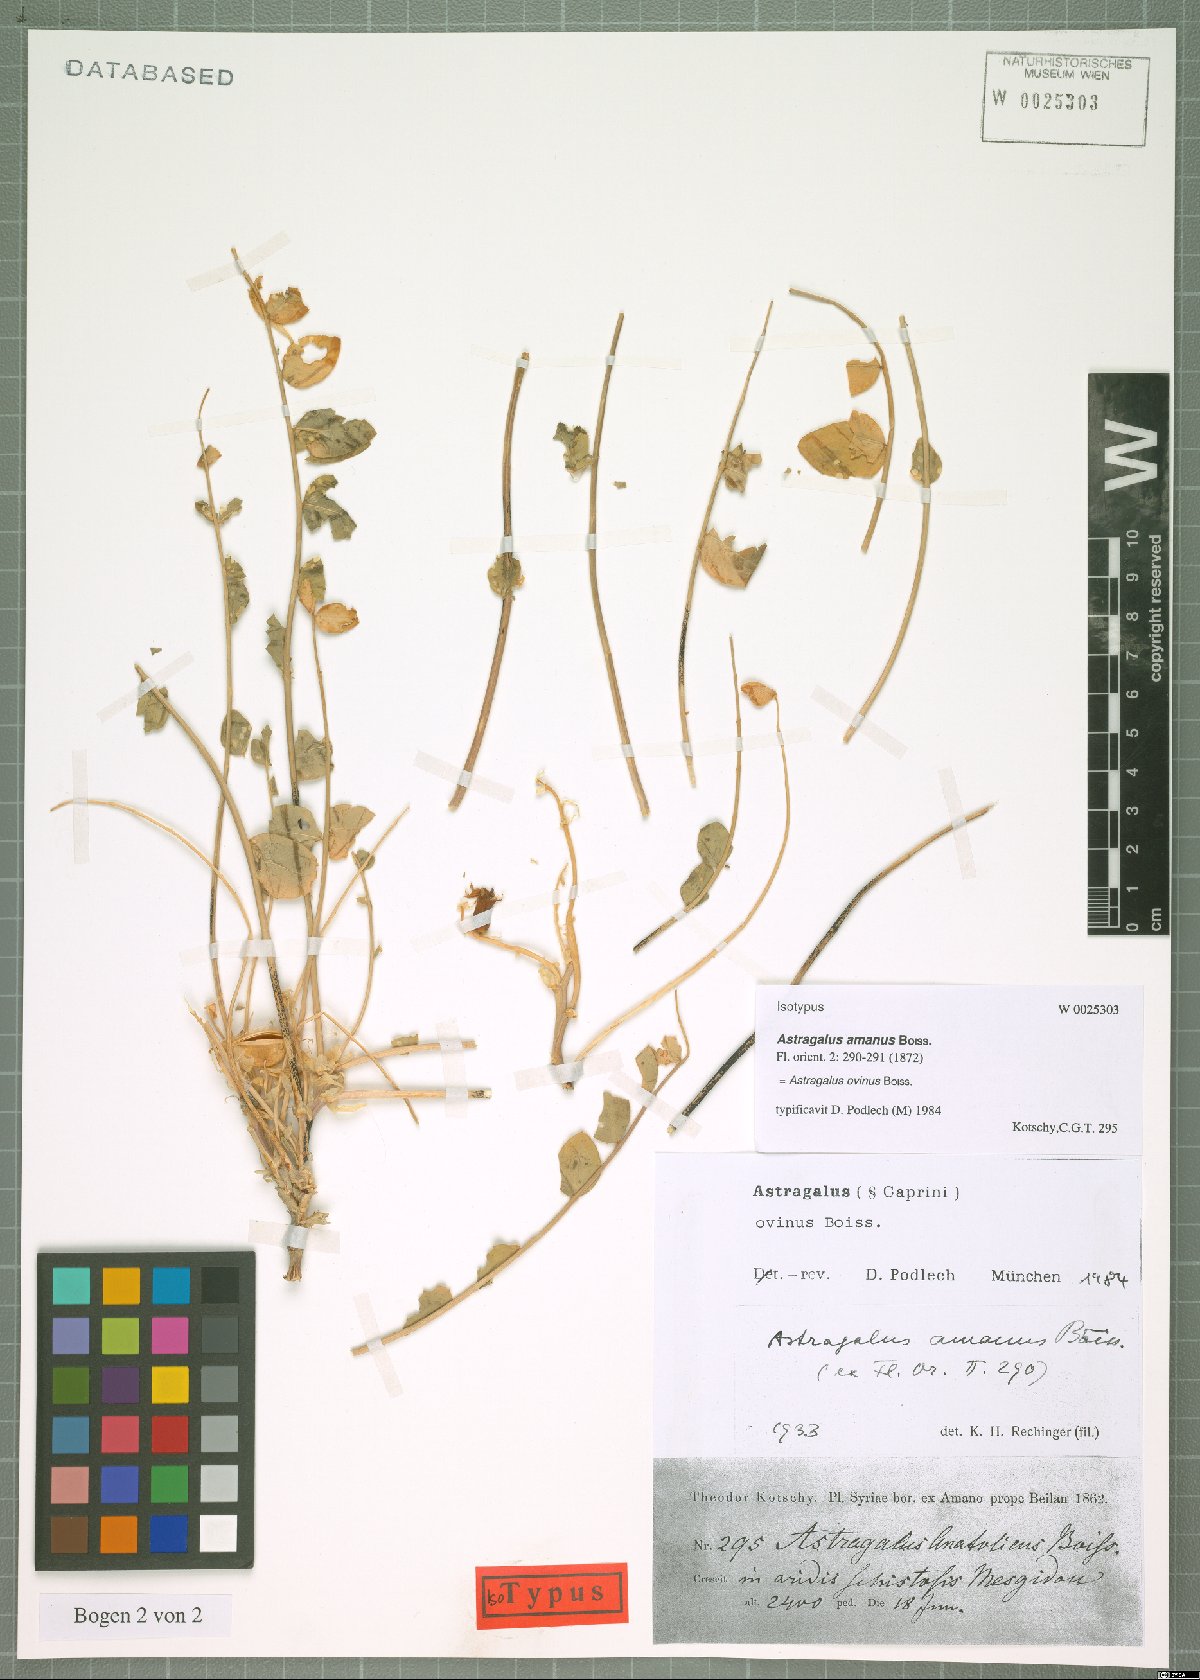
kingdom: Plantae
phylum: Tracheophyta
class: Magnoliopsida
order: Fabales
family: Fabaceae
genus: Astragalus
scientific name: Astragalus ovinus
